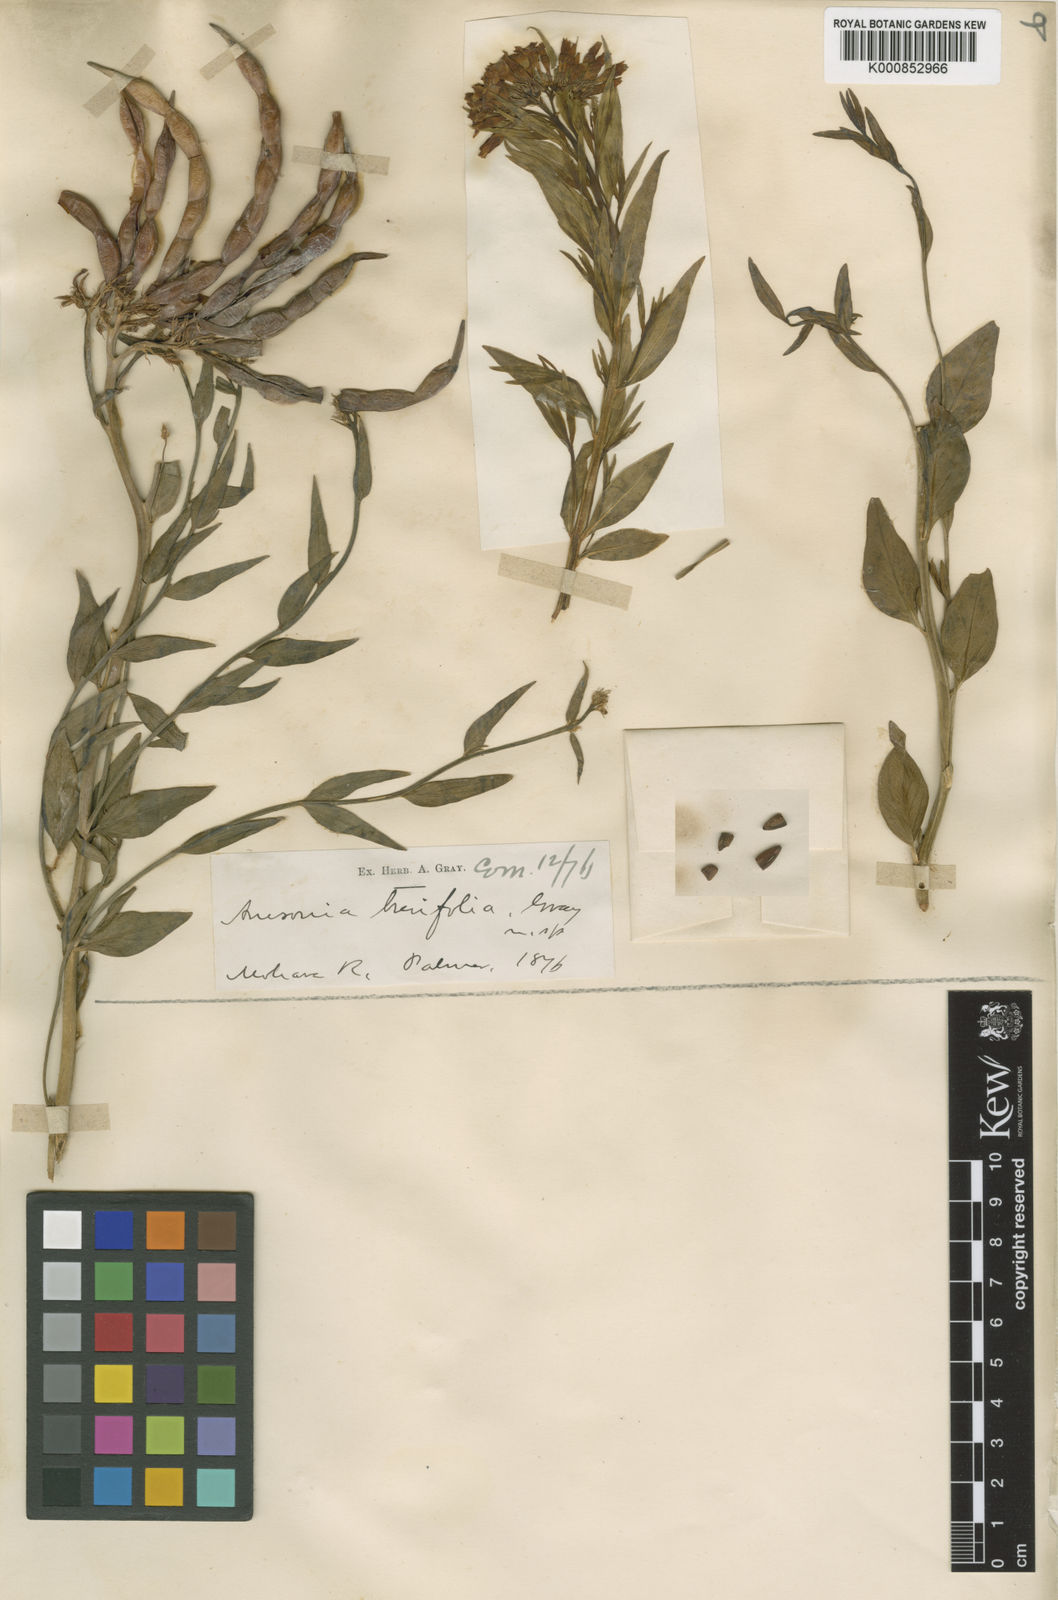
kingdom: Plantae
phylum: Tracheophyta
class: Magnoliopsida
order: Gentianales
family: Apocynaceae
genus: Amsonia
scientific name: Amsonia tomentosa
